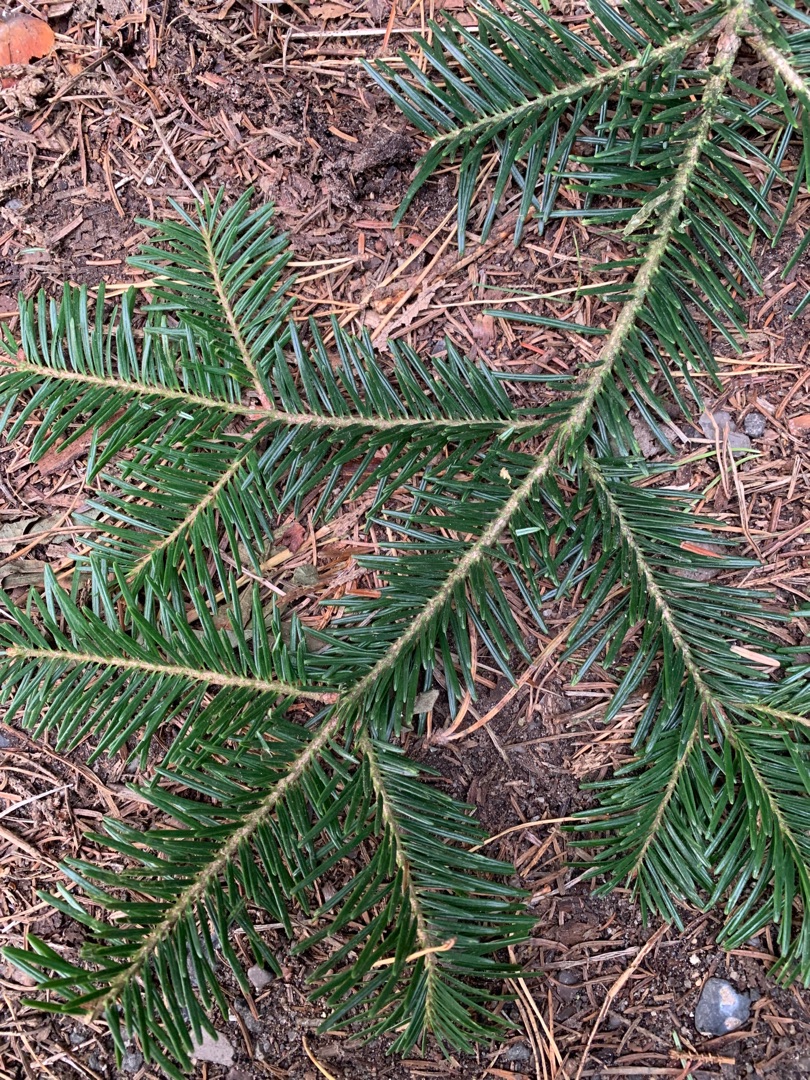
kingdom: Plantae
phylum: Tracheophyta
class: Pinopsida
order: Pinales
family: Pinaceae
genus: Abies
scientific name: Abies alba
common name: Almindelig ædelgran
